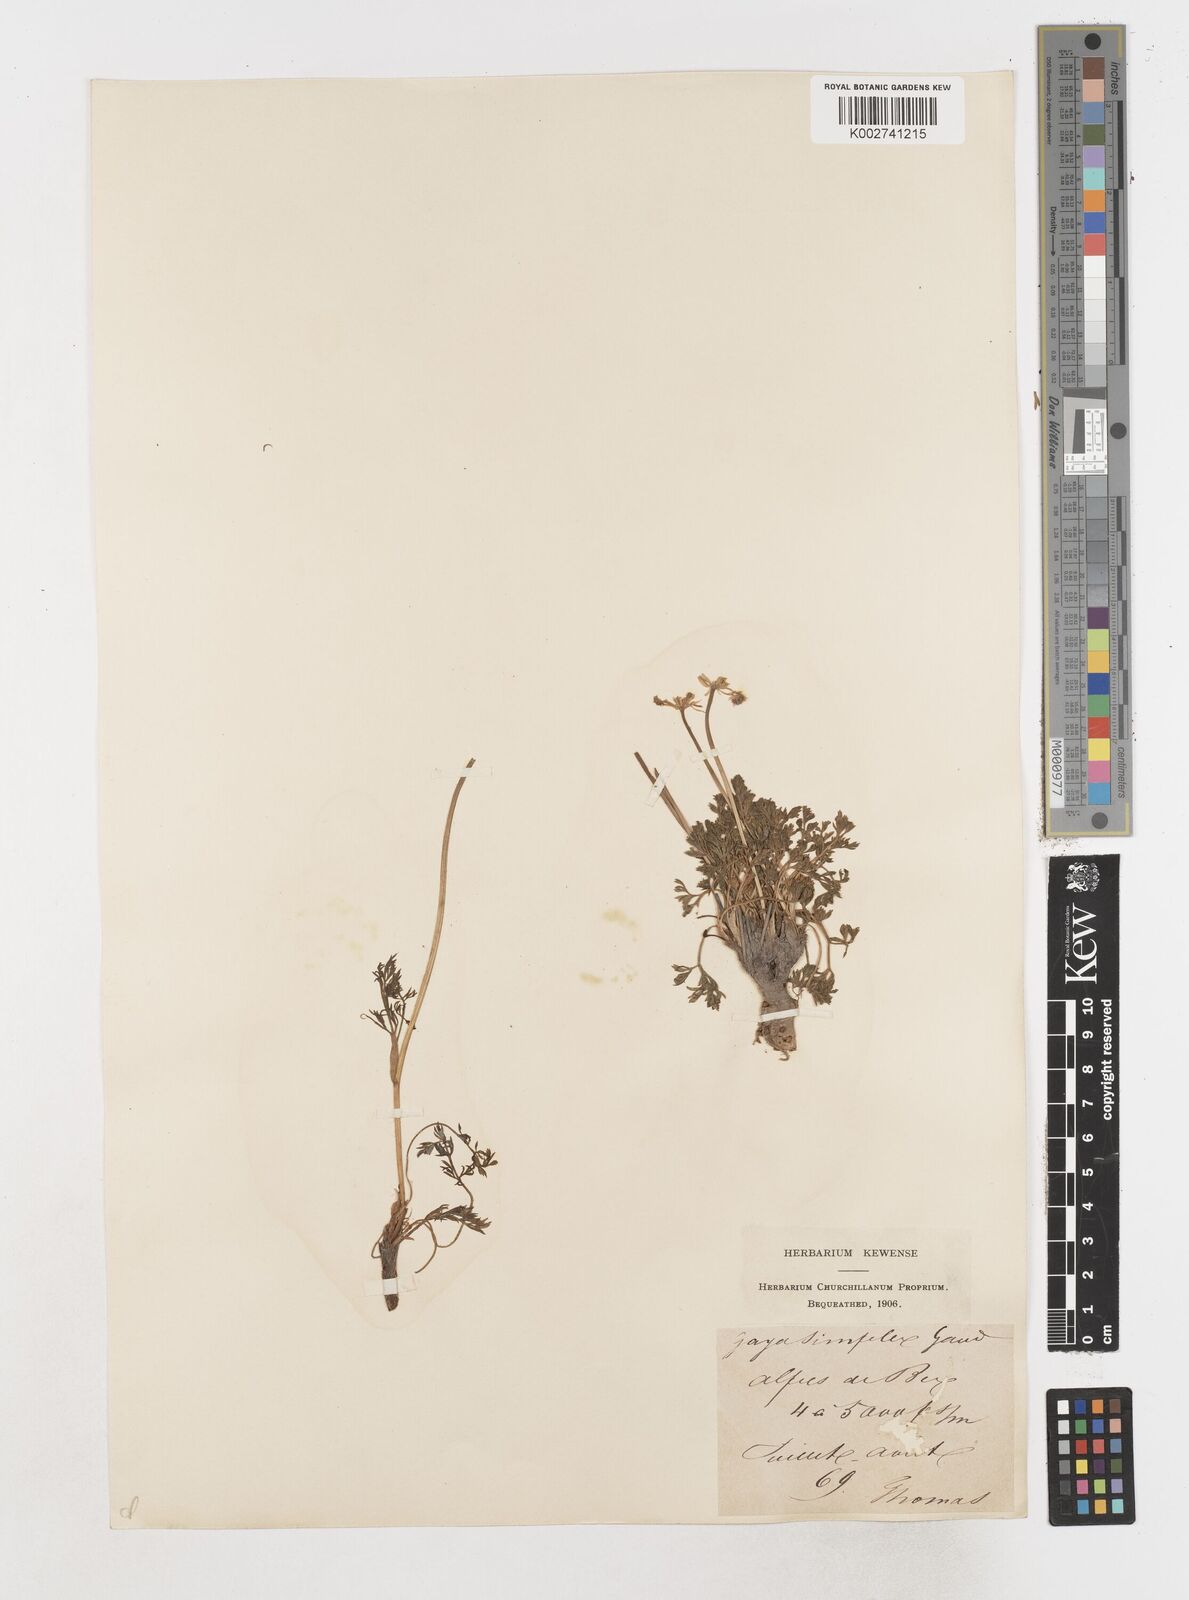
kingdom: Plantae
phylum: Tracheophyta
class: Magnoliopsida
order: Apiales
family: Apiaceae
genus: Pachypleurum
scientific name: Pachypleurum mutellinoides
